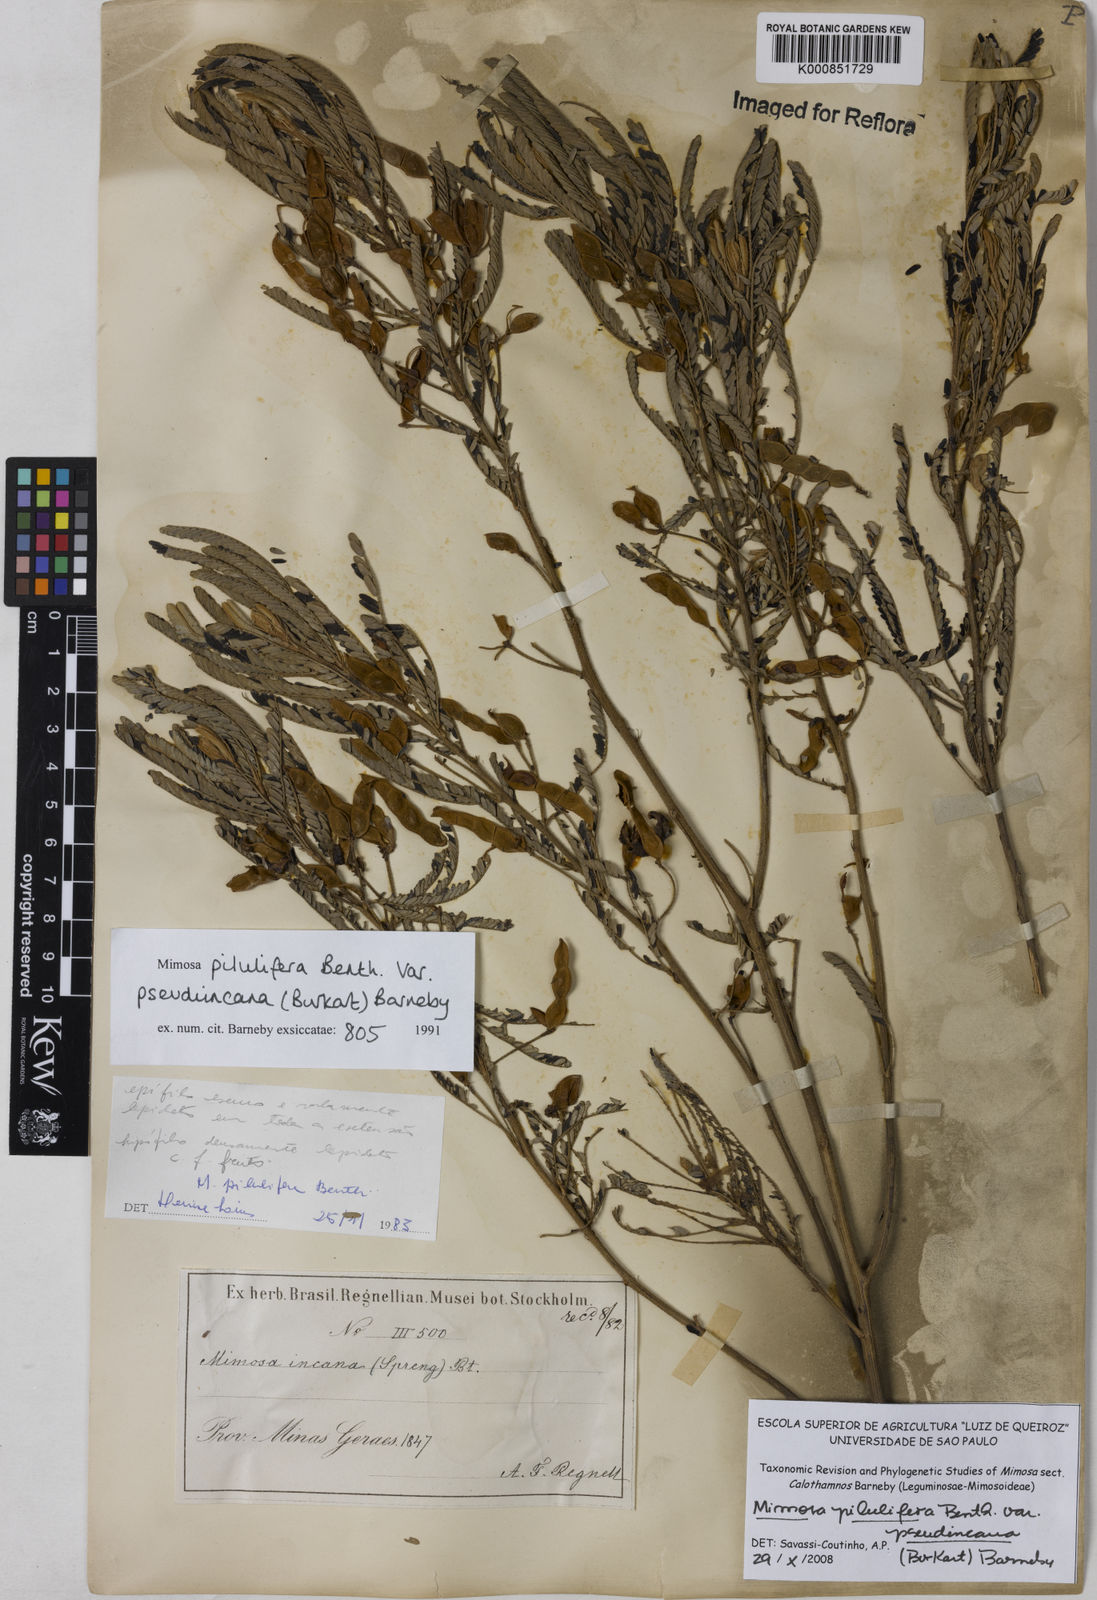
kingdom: Plantae
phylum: Tracheophyta
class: Magnoliopsida
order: Fabales
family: Fabaceae
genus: Mimosa
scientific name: Mimosa pilulifera
